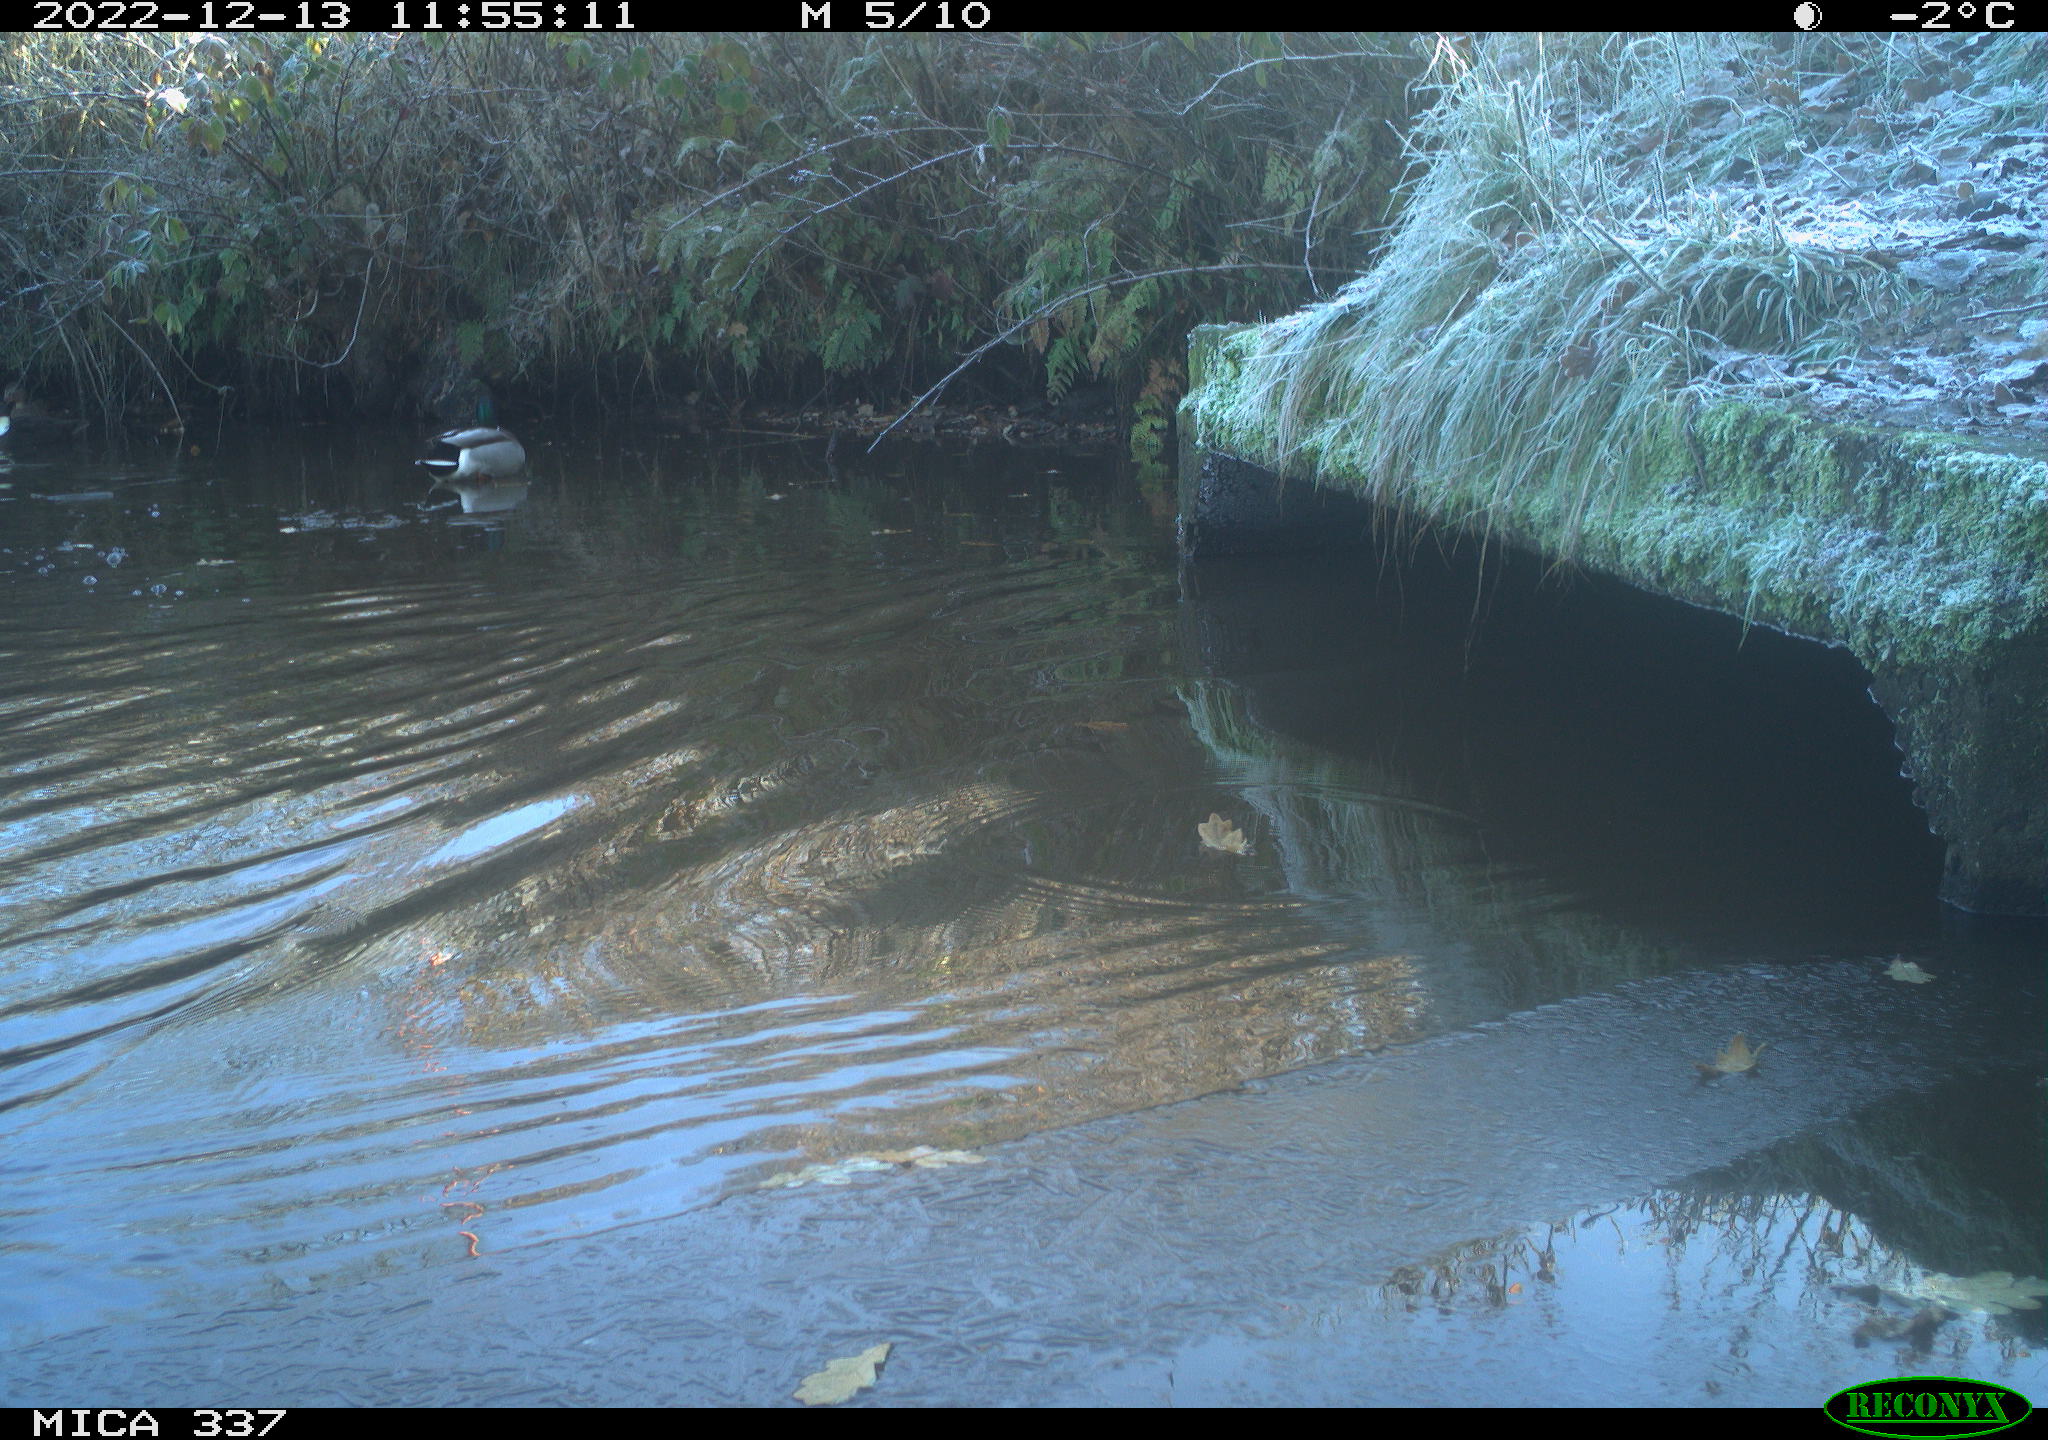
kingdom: Animalia
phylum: Chordata
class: Aves
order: Anseriformes
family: Anatidae
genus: Anas
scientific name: Anas platyrhynchos
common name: Mallard
